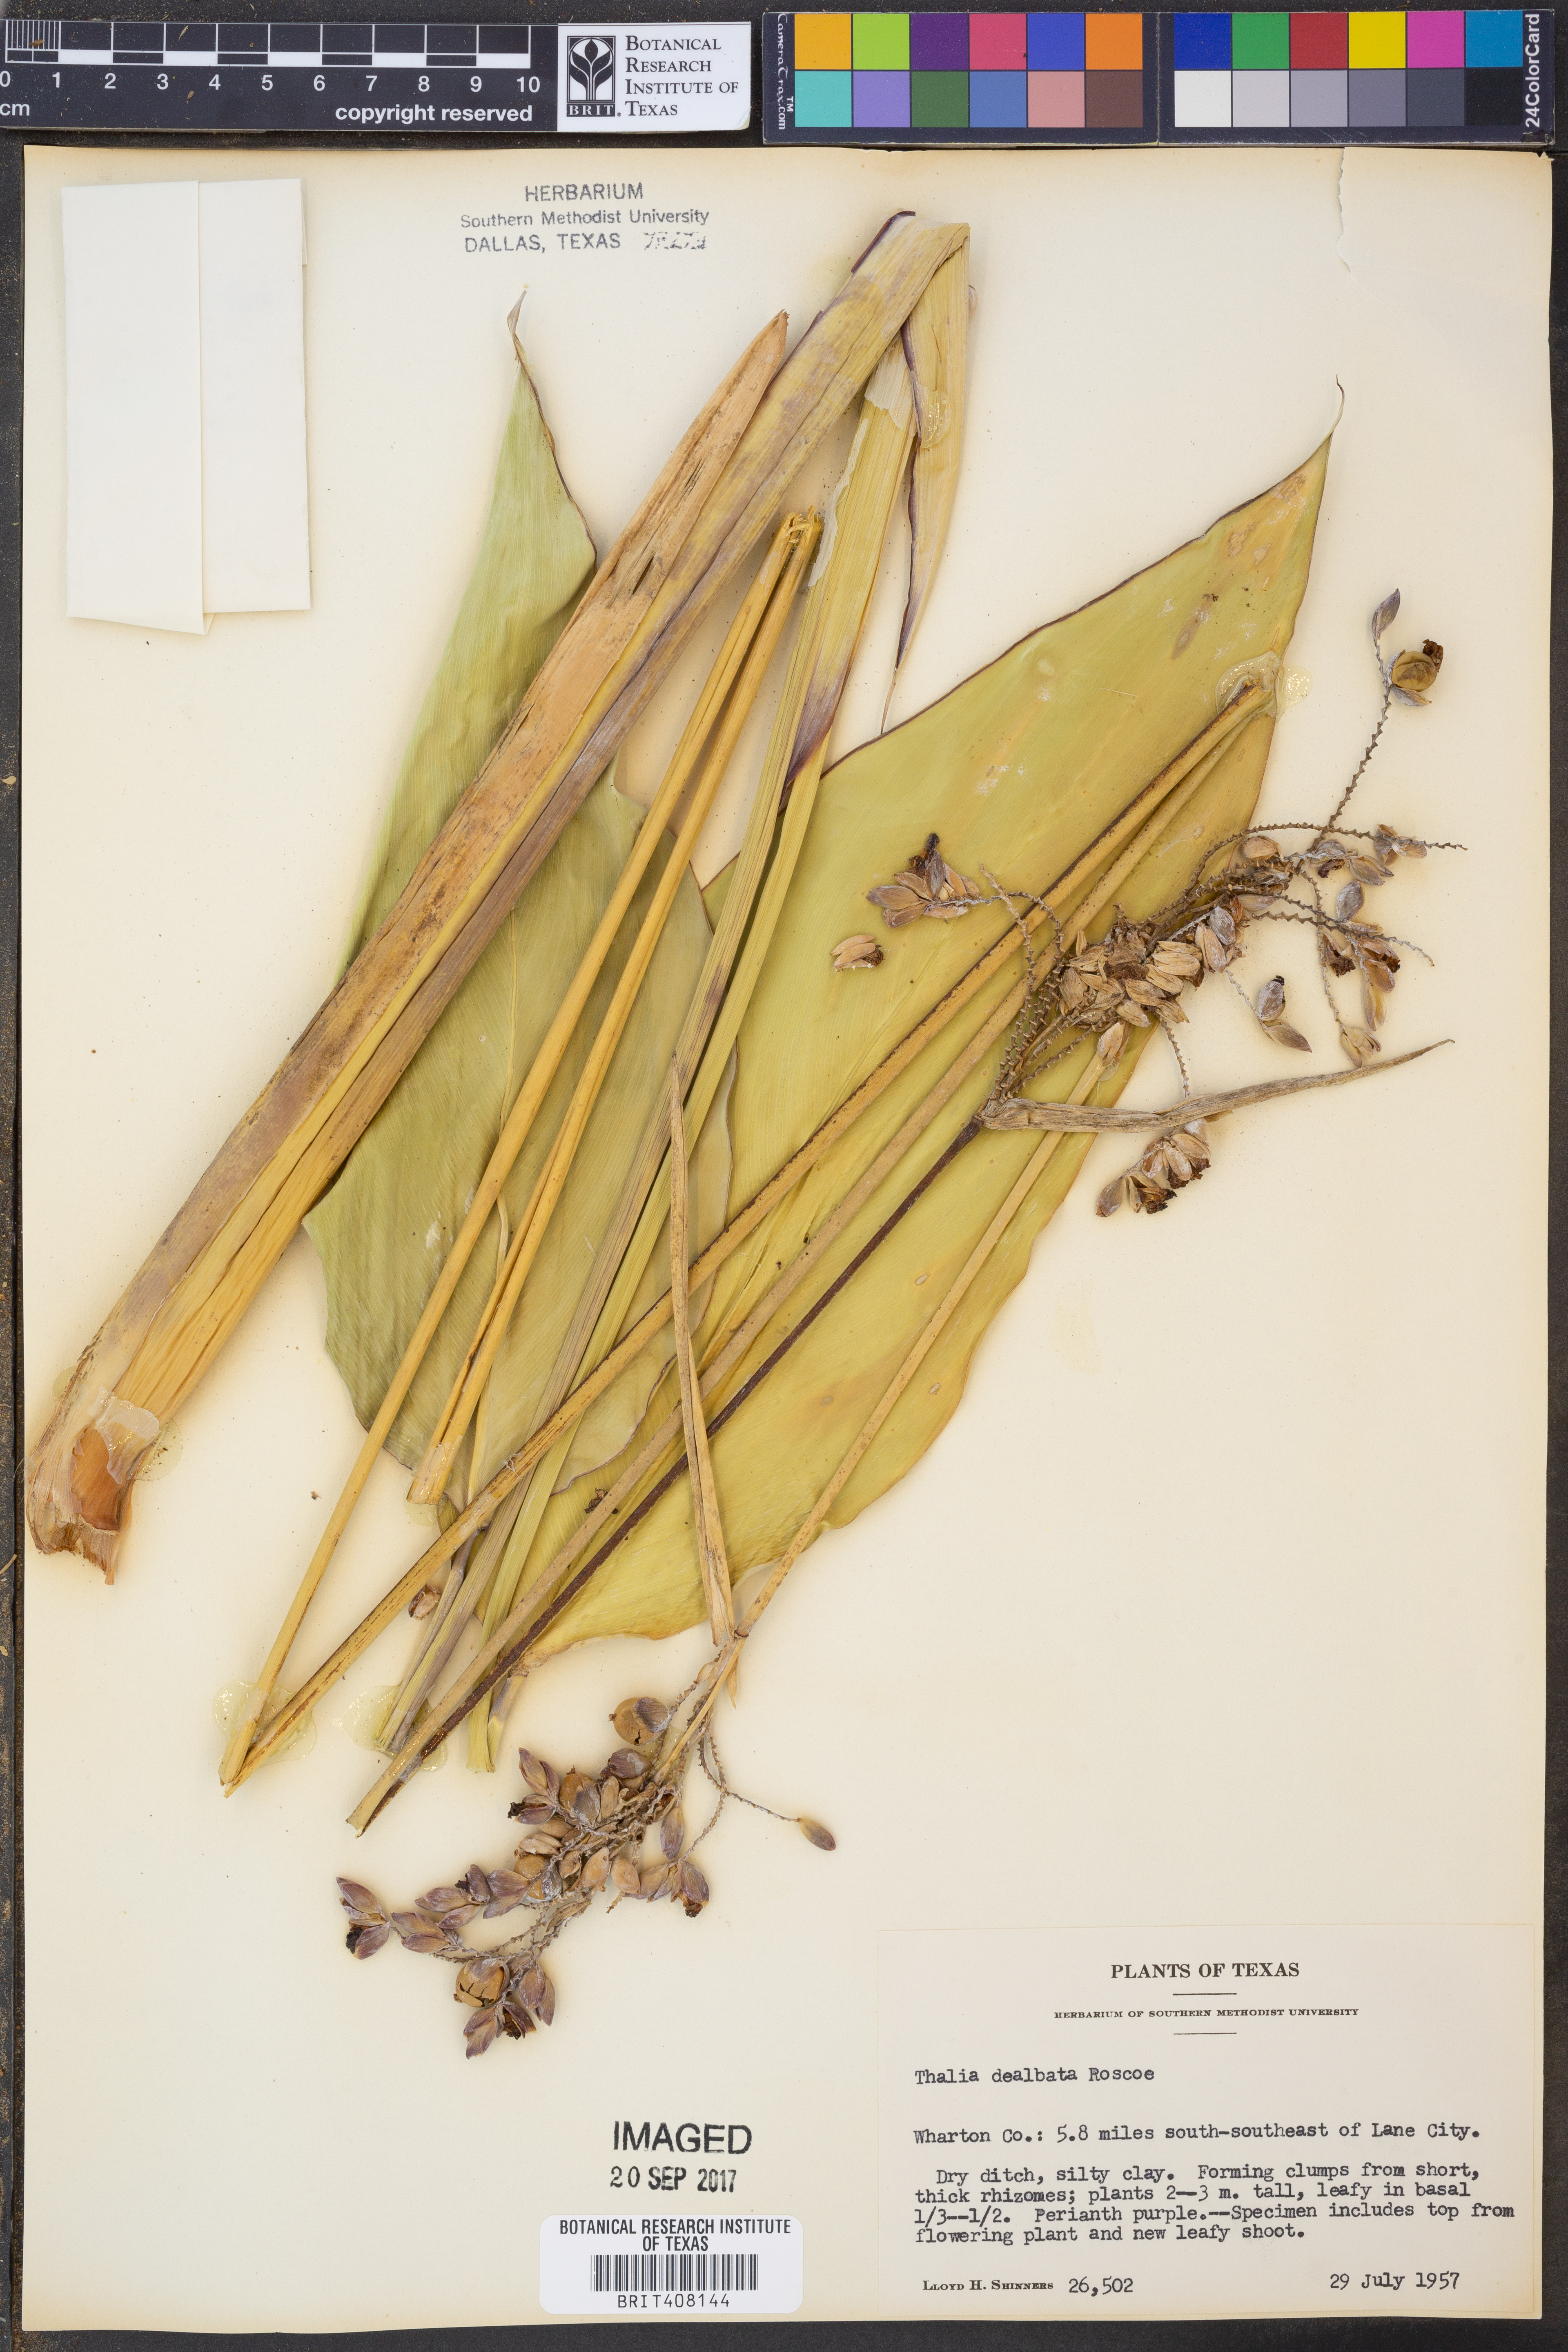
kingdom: Plantae
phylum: Tracheophyta
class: Liliopsida
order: Zingiberales
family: Marantaceae
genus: Thalia
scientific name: Thalia dealbata
